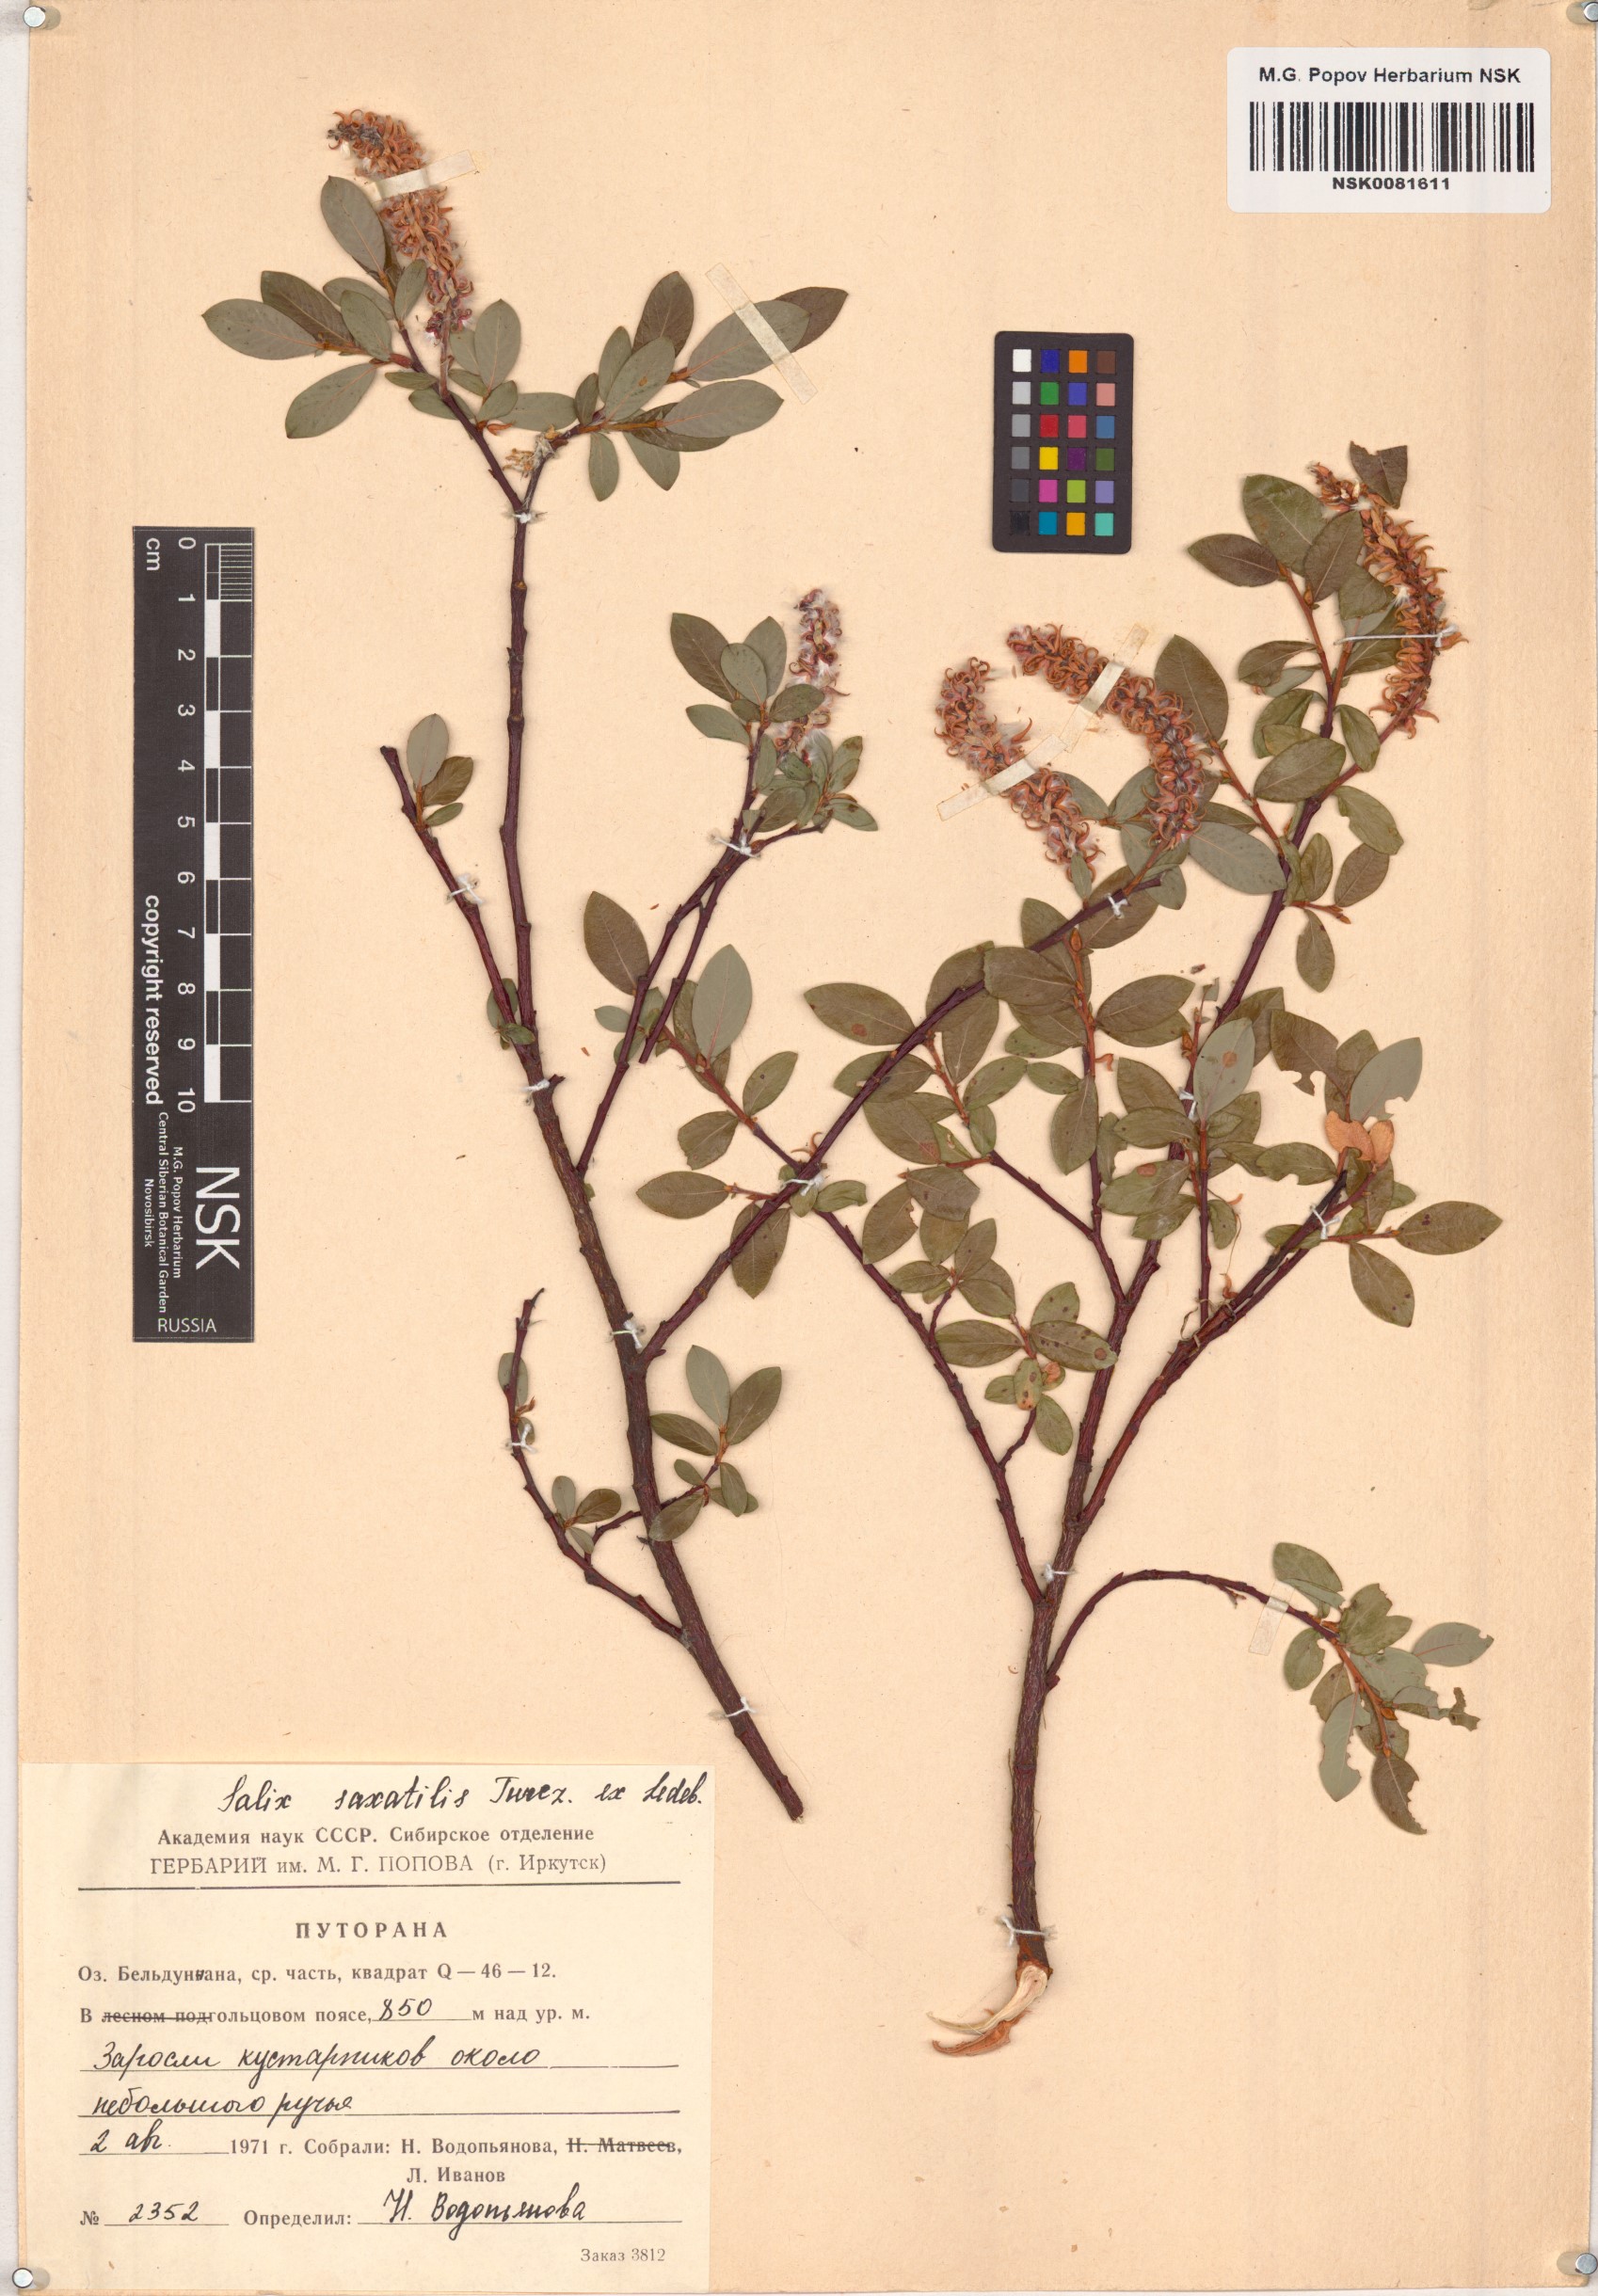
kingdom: Plantae
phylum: Tracheophyta
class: Magnoliopsida
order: Malpighiales
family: Salicaceae
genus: Salix
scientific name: Salix saxatilis
